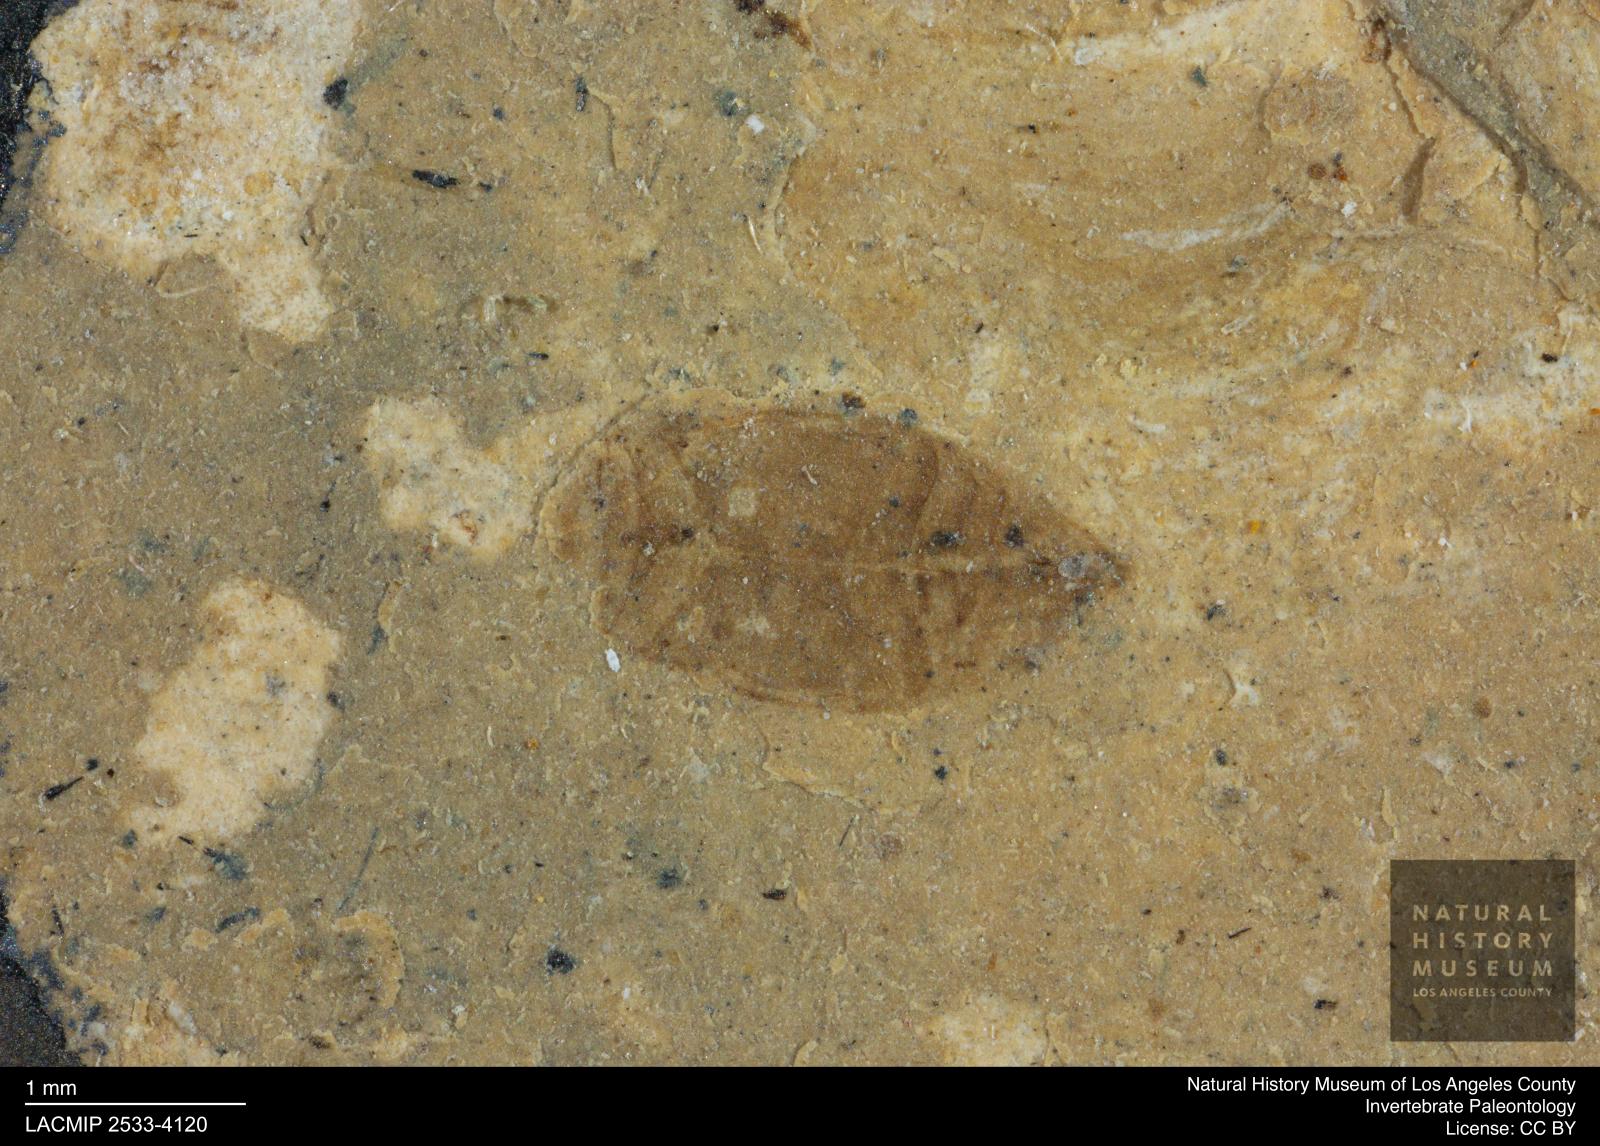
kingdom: Animalia
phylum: Arthropoda
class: Insecta
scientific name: Insecta
